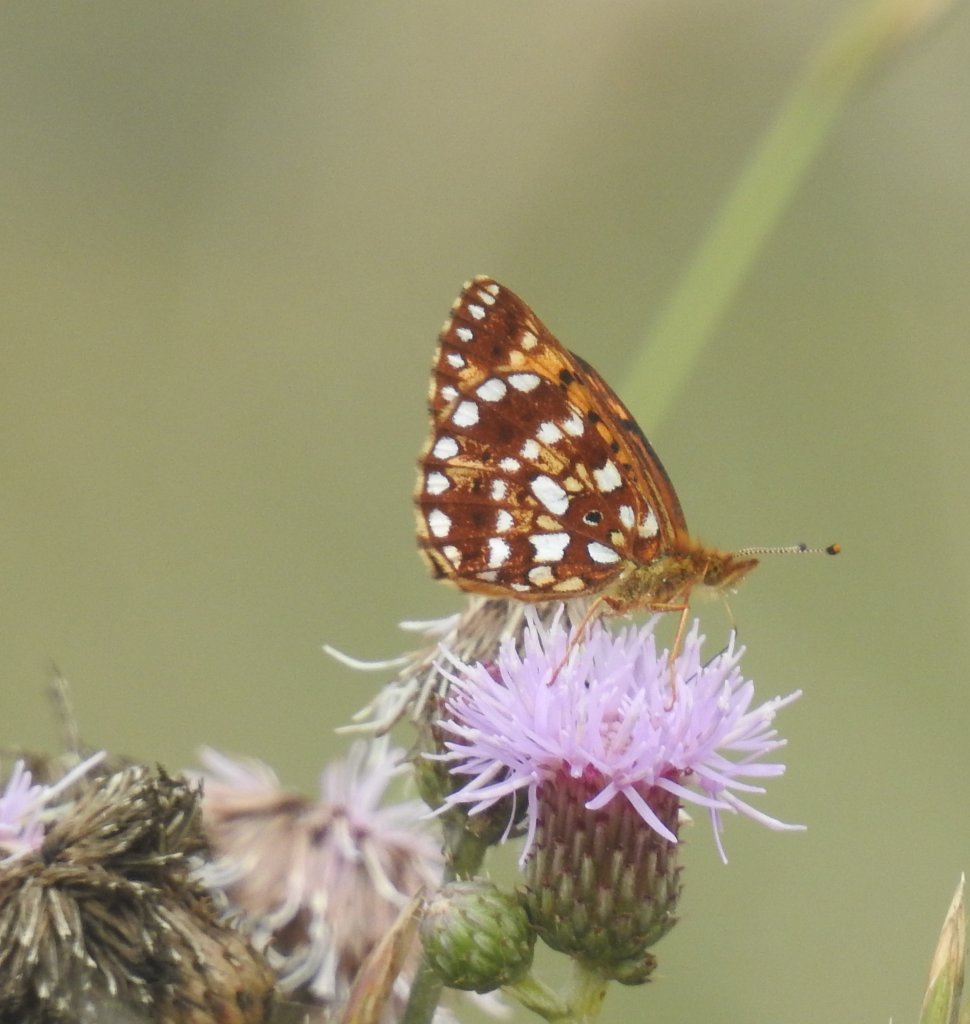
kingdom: Animalia
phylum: Arthropoda
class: Insecta
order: Lepidoptera
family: Nymphalidae
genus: Boloria
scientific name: Boloria selene
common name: Silver-bordered Fritillary
